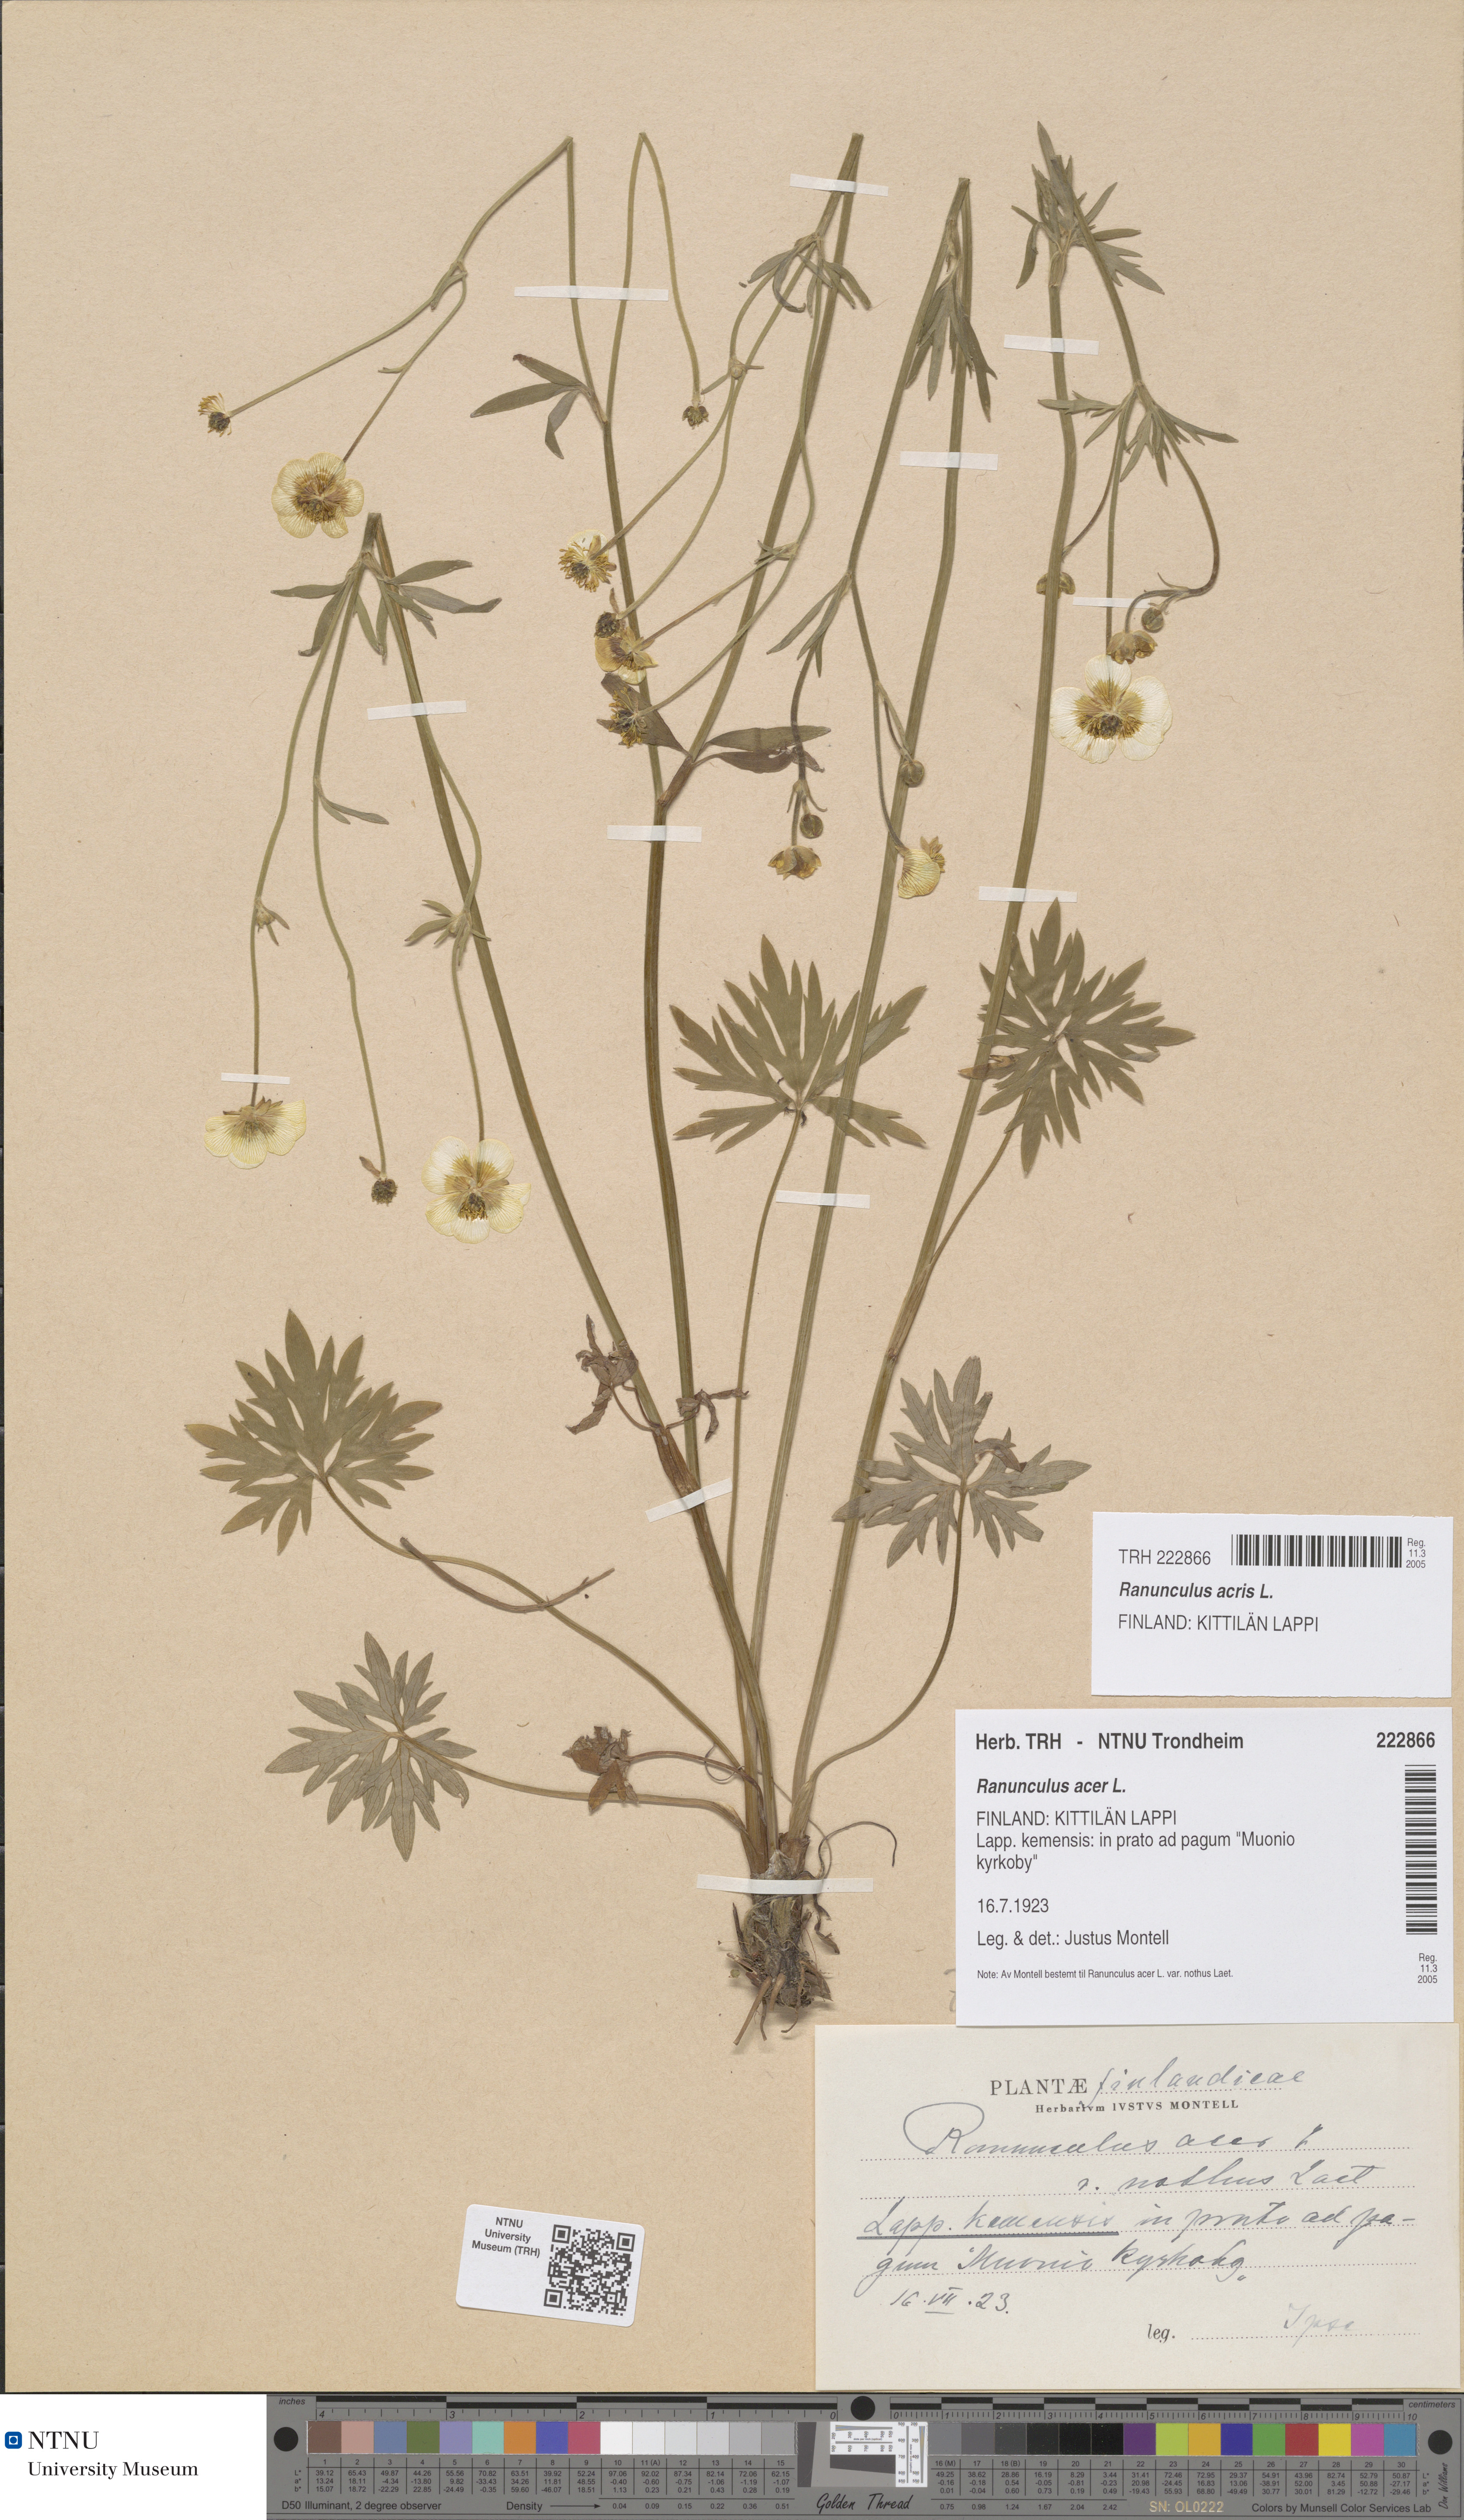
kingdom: Plantae
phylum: Tracheophyta
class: Magnoliopsida
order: Ranunculales
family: Ranunculaceae
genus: Ranunculus
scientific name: Ranunculus acris
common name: Meadow buttercup
